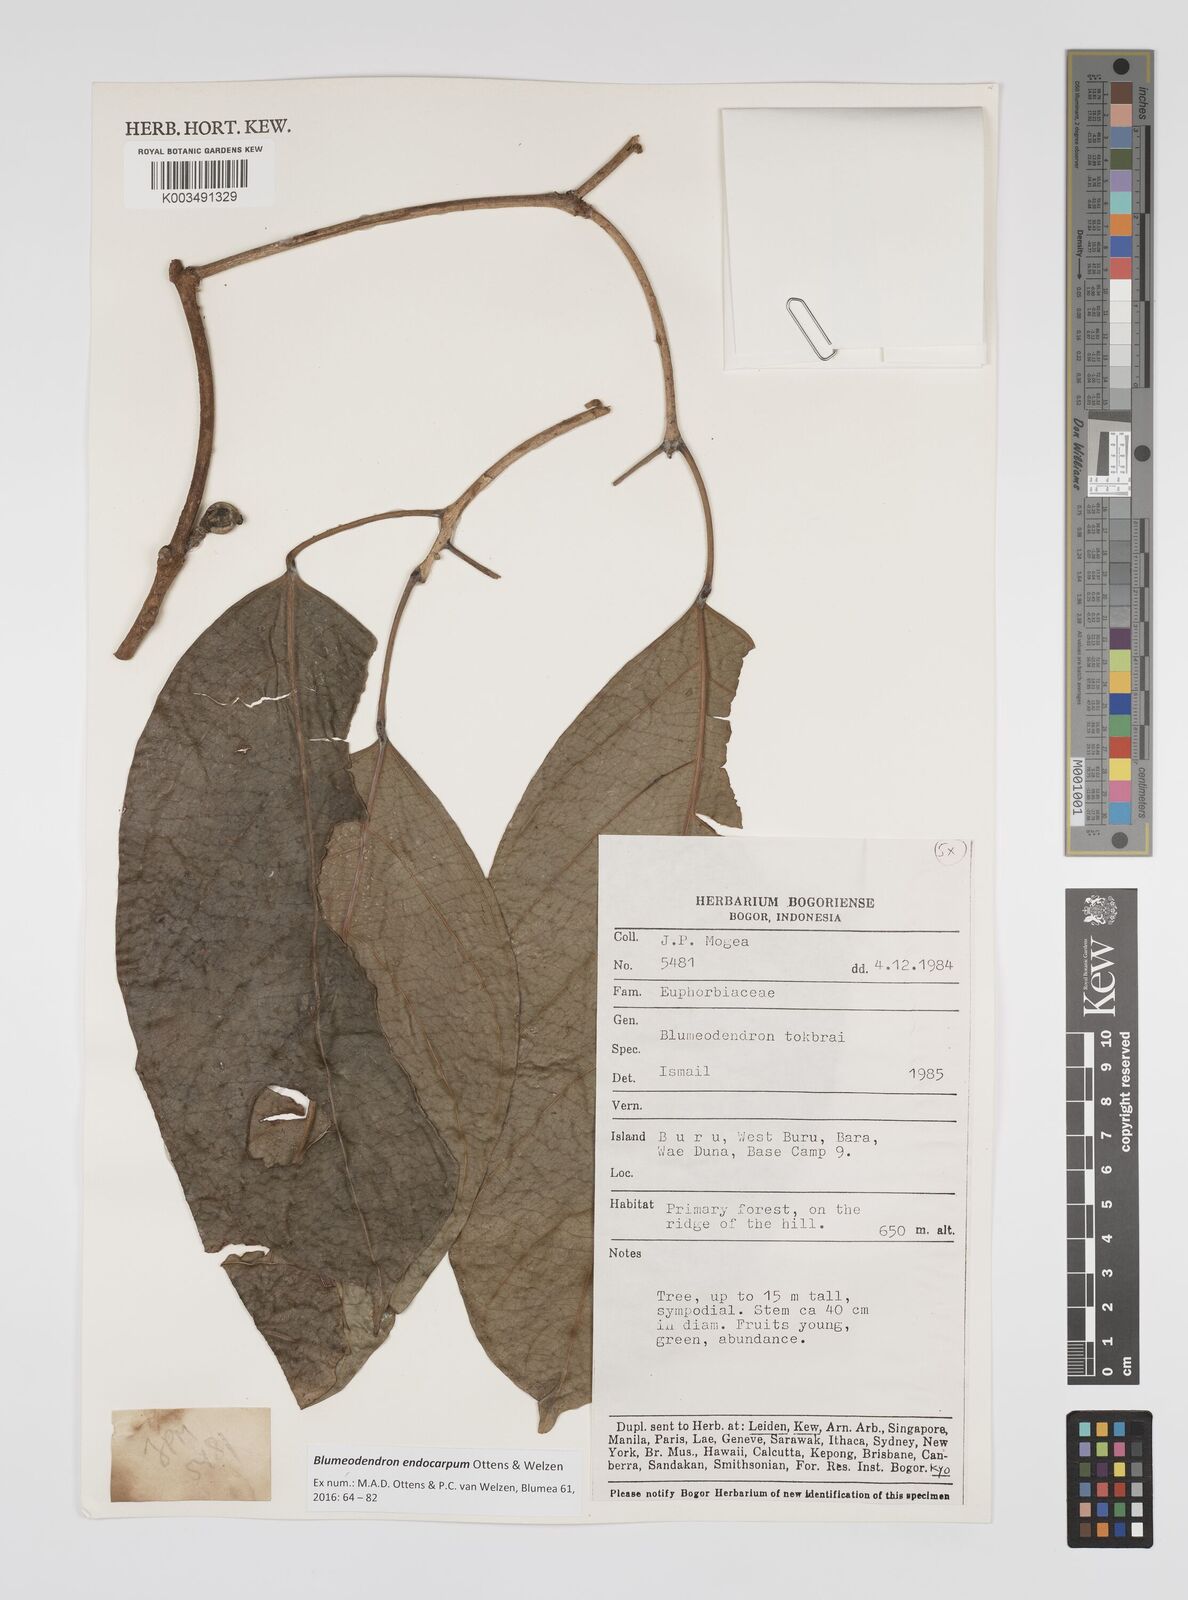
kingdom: Plantae
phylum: Tracheophyta
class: Magnoliopsida
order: Malpighiales
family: Euphorbiaceae
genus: Blumeodendron
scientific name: Blumeodendron endocarpum
